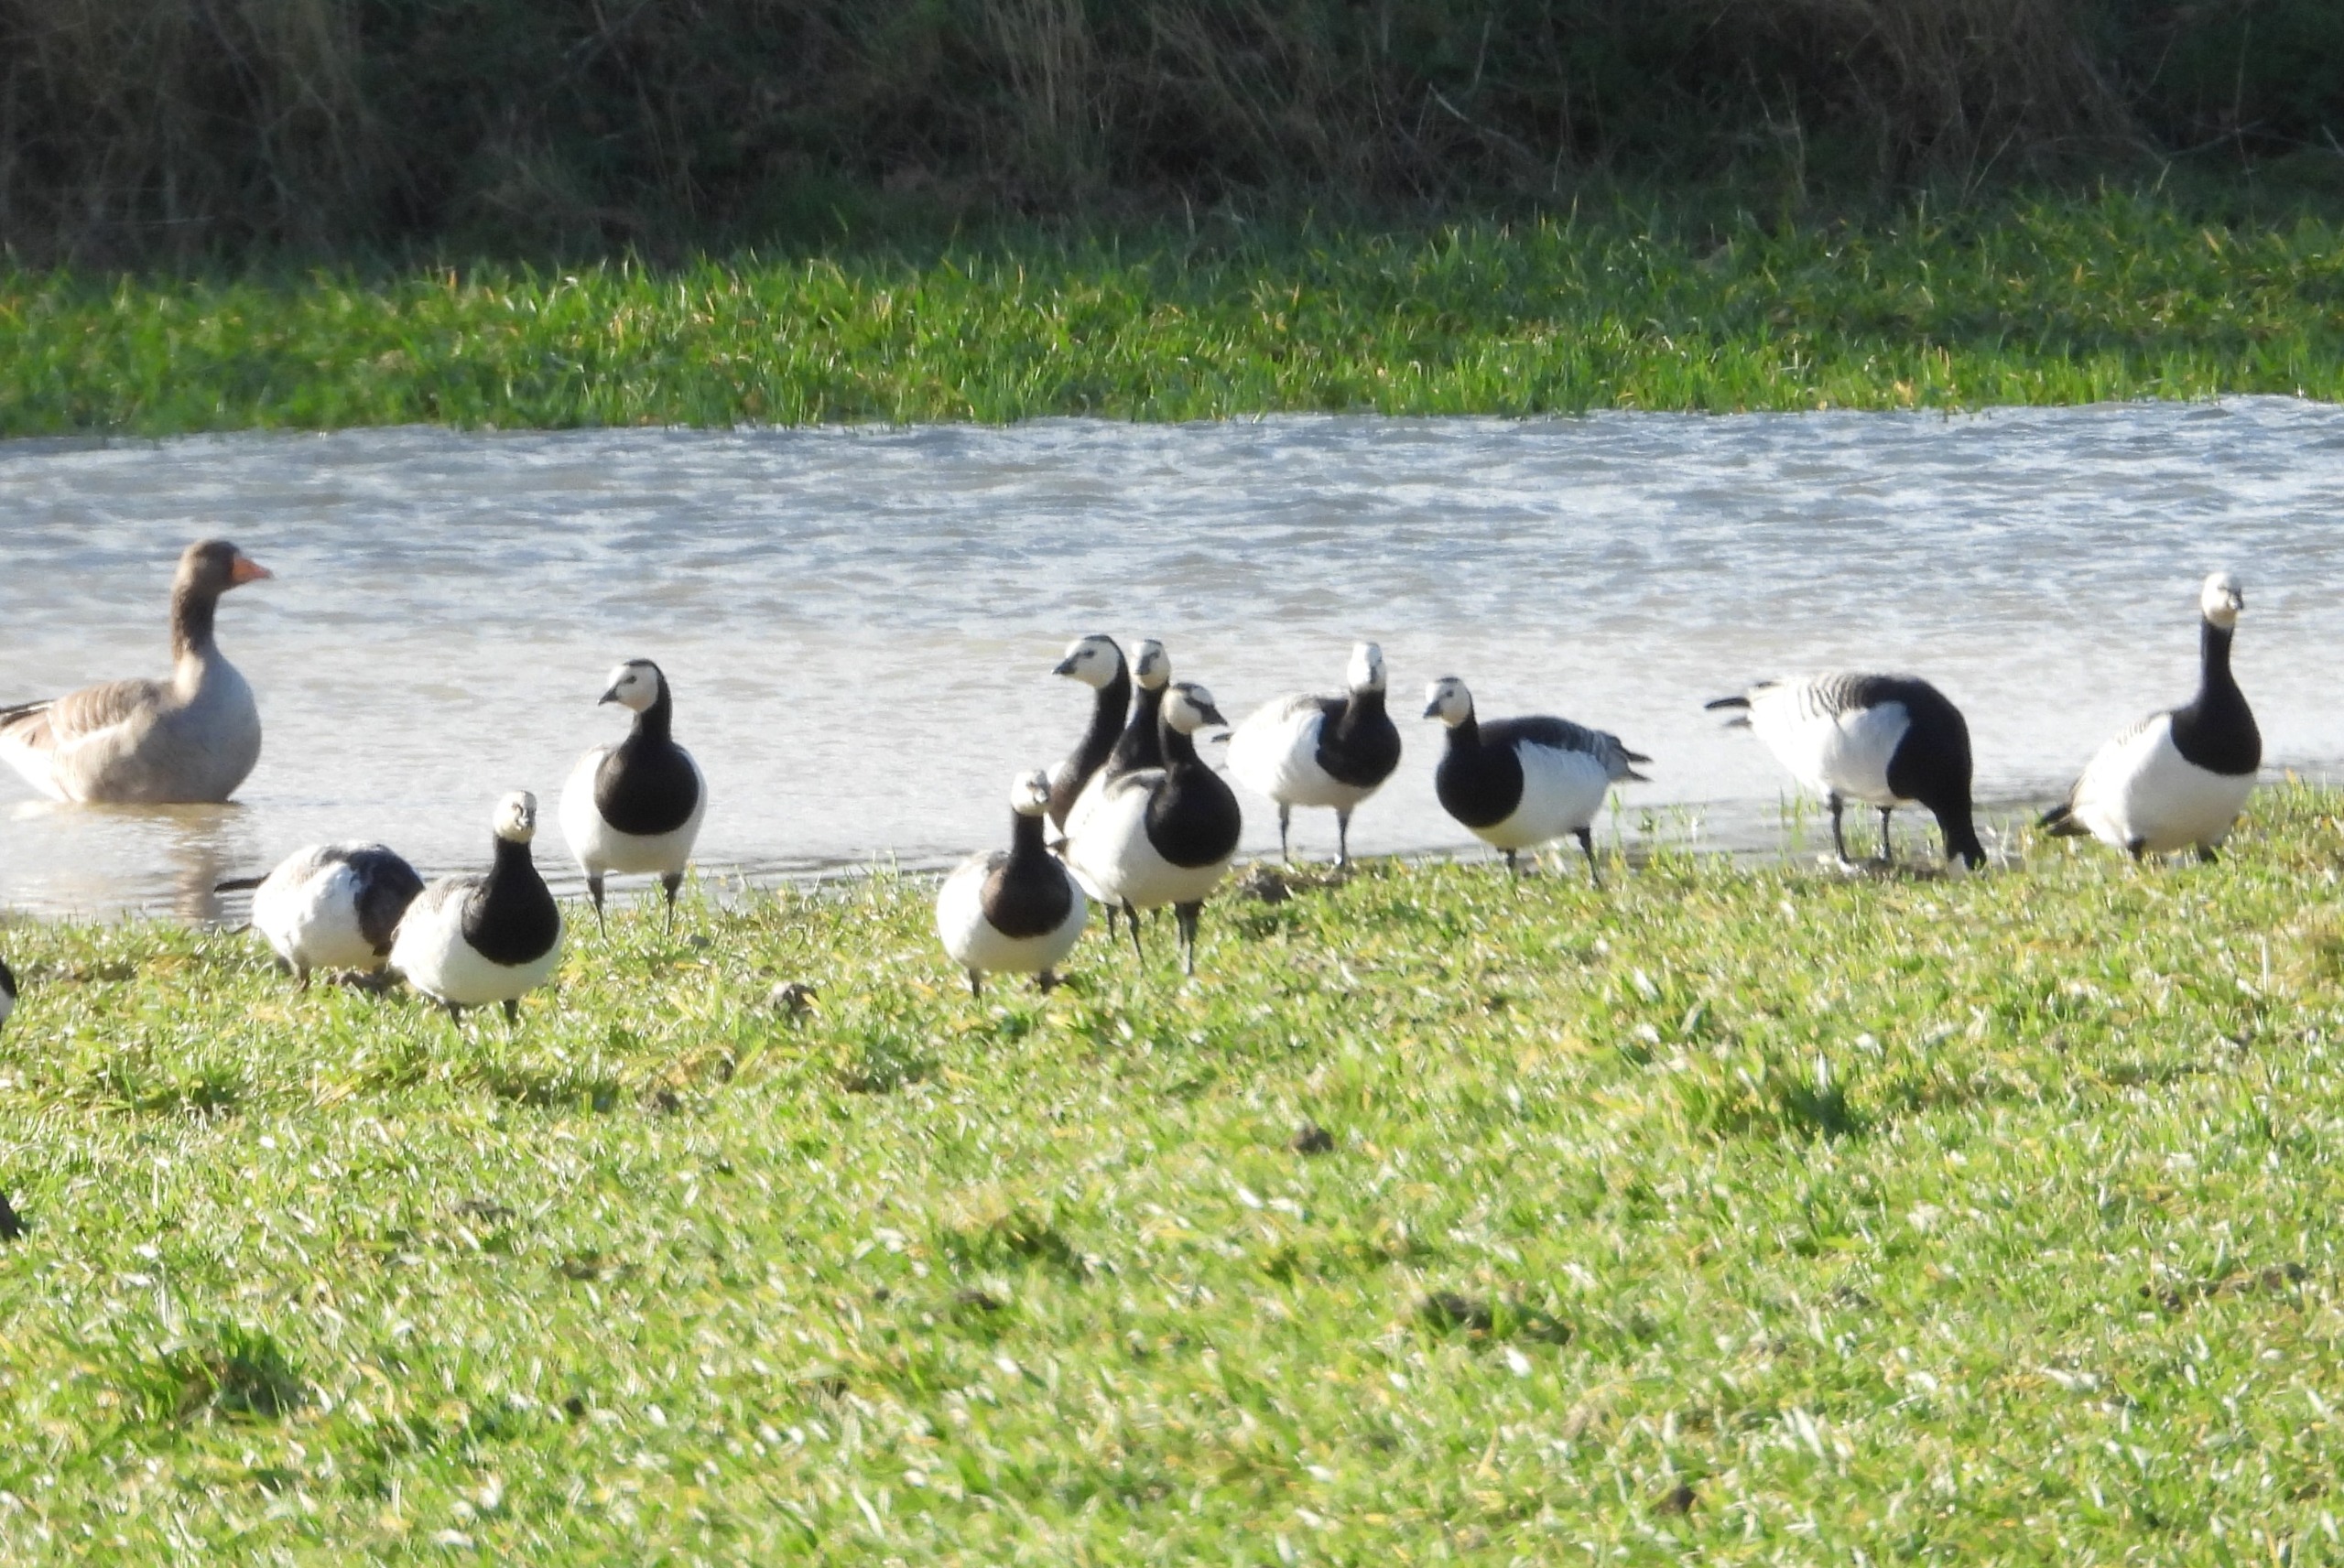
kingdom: Animalia
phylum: Chordata
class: Aves
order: Anseriformes
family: Anatidae
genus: Branta
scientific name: Branta leucopsis
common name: Bramgås
